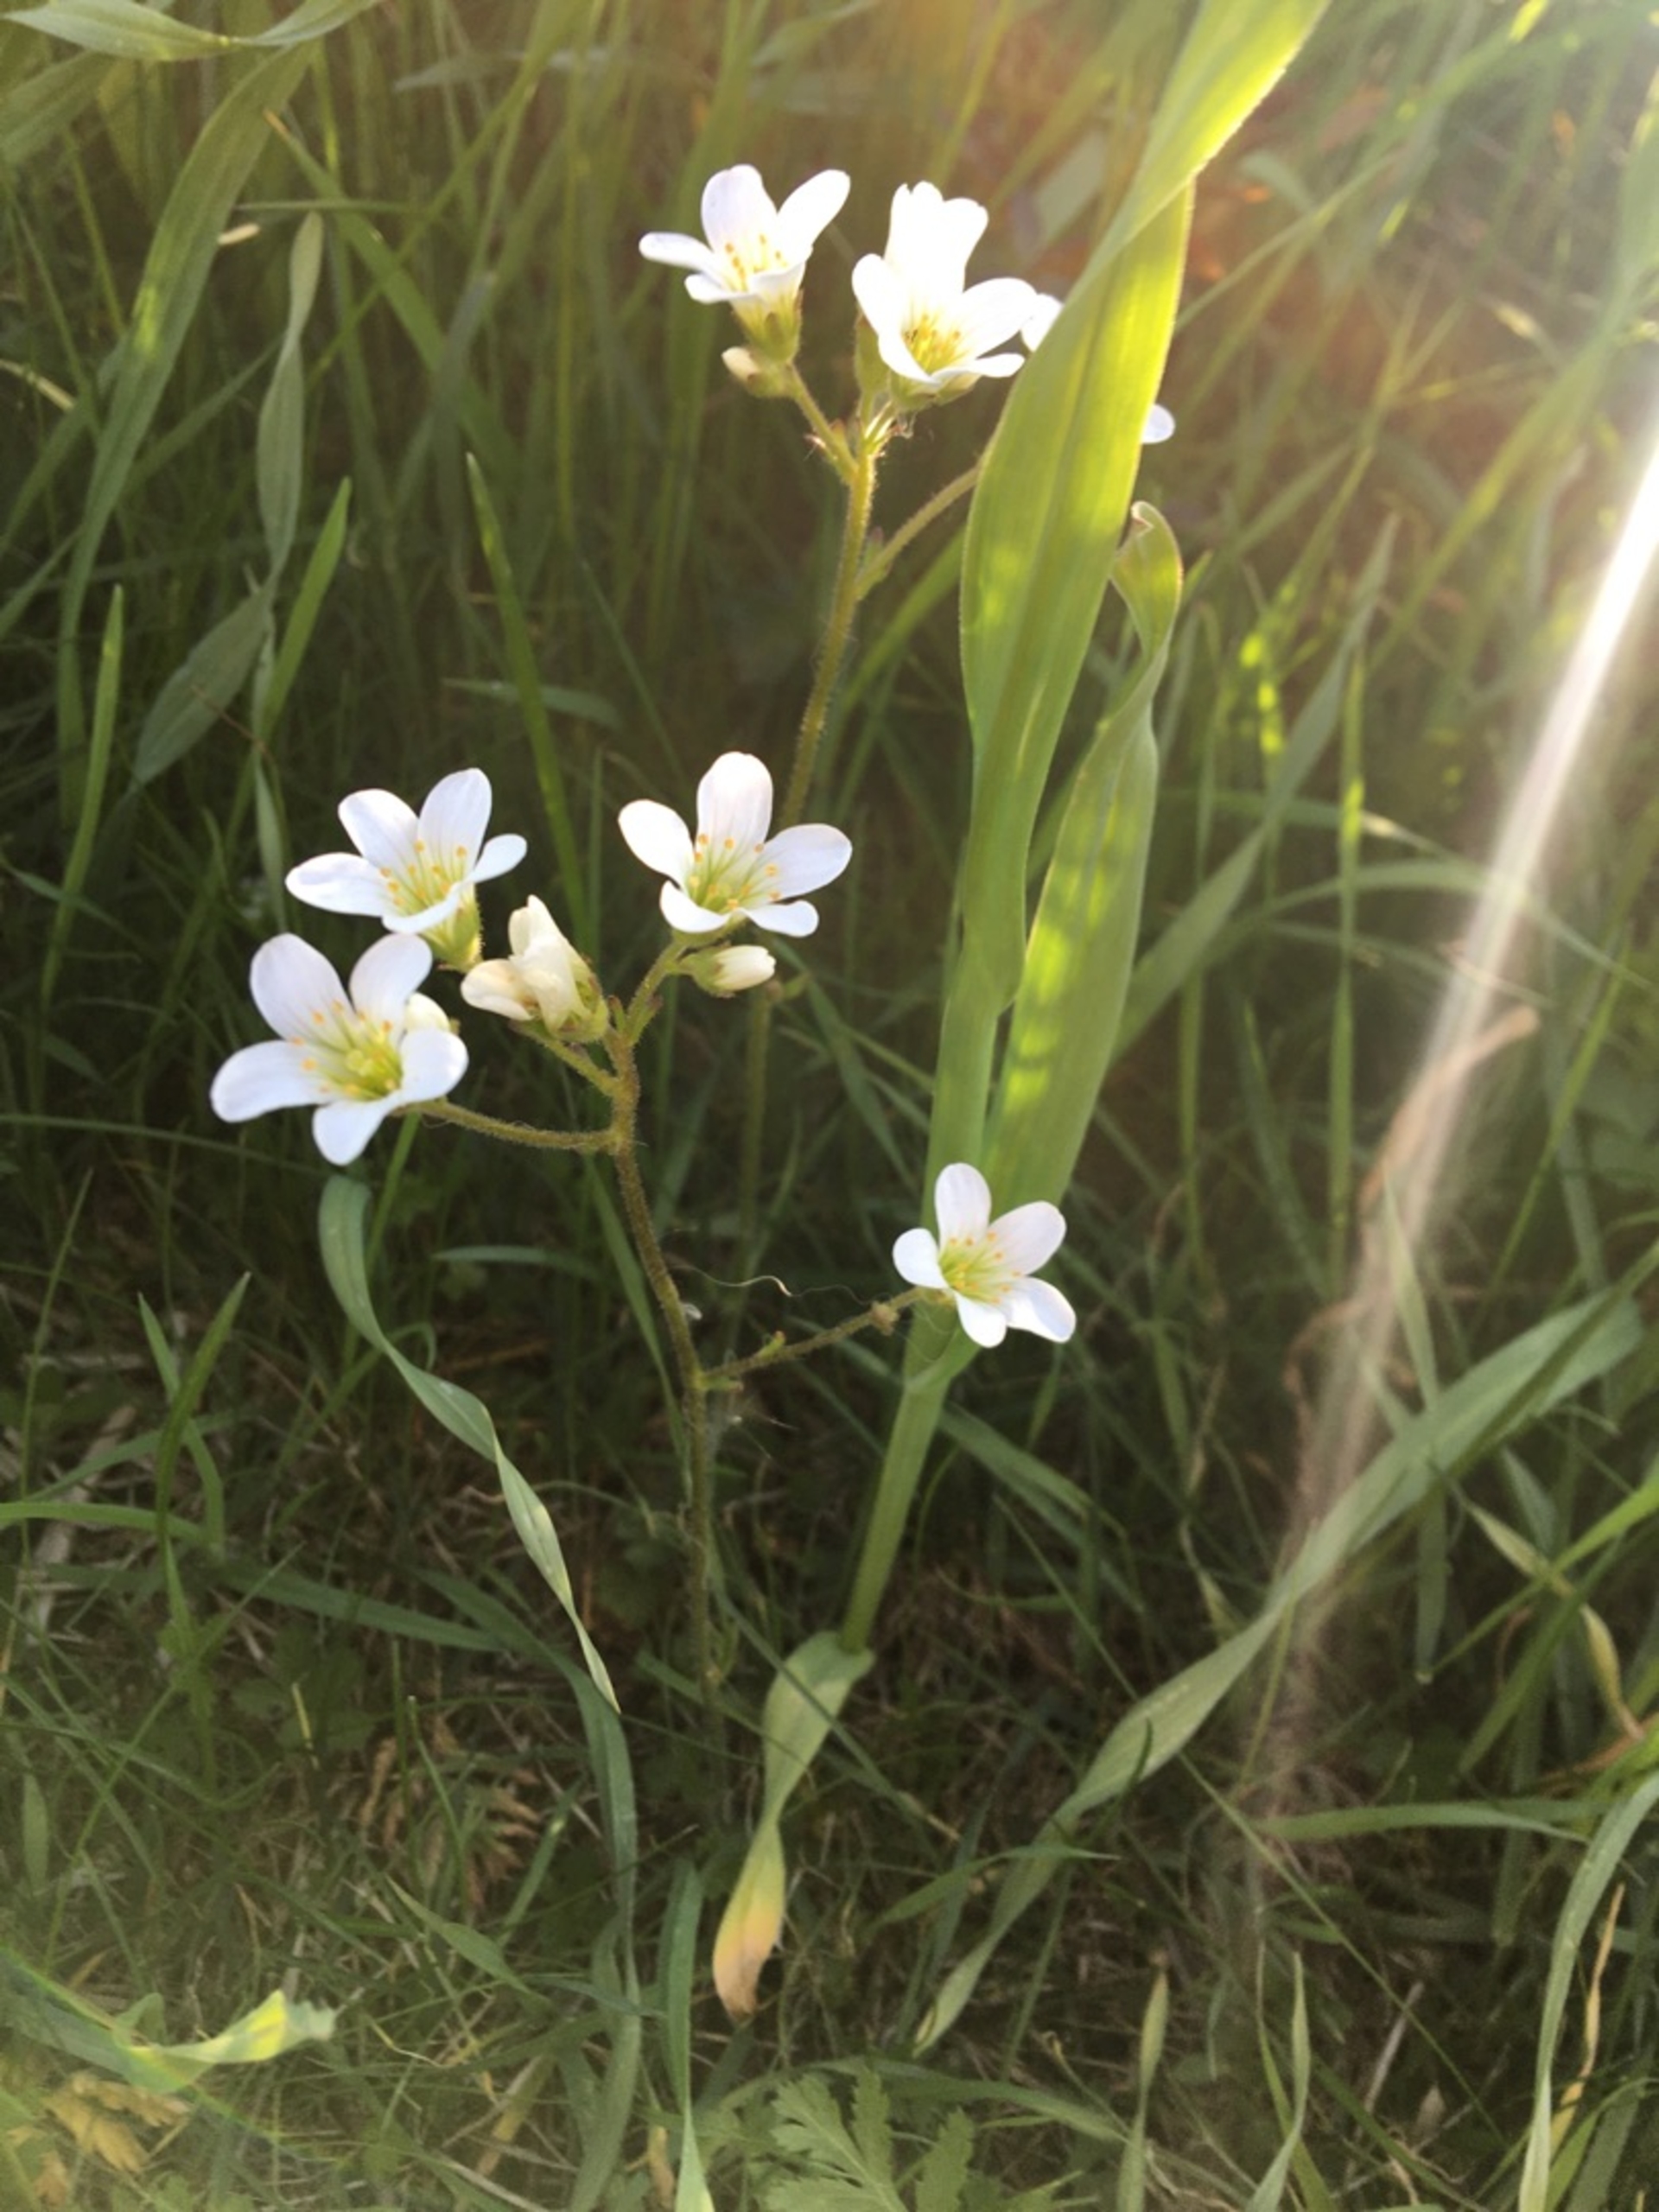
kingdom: Plantae
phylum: Tracheophyta
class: Magnoliopsida
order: Saxifragales
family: Saxifragaceae
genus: Saxifraga
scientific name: Saxifraga granulata
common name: Kornet stenbræk
